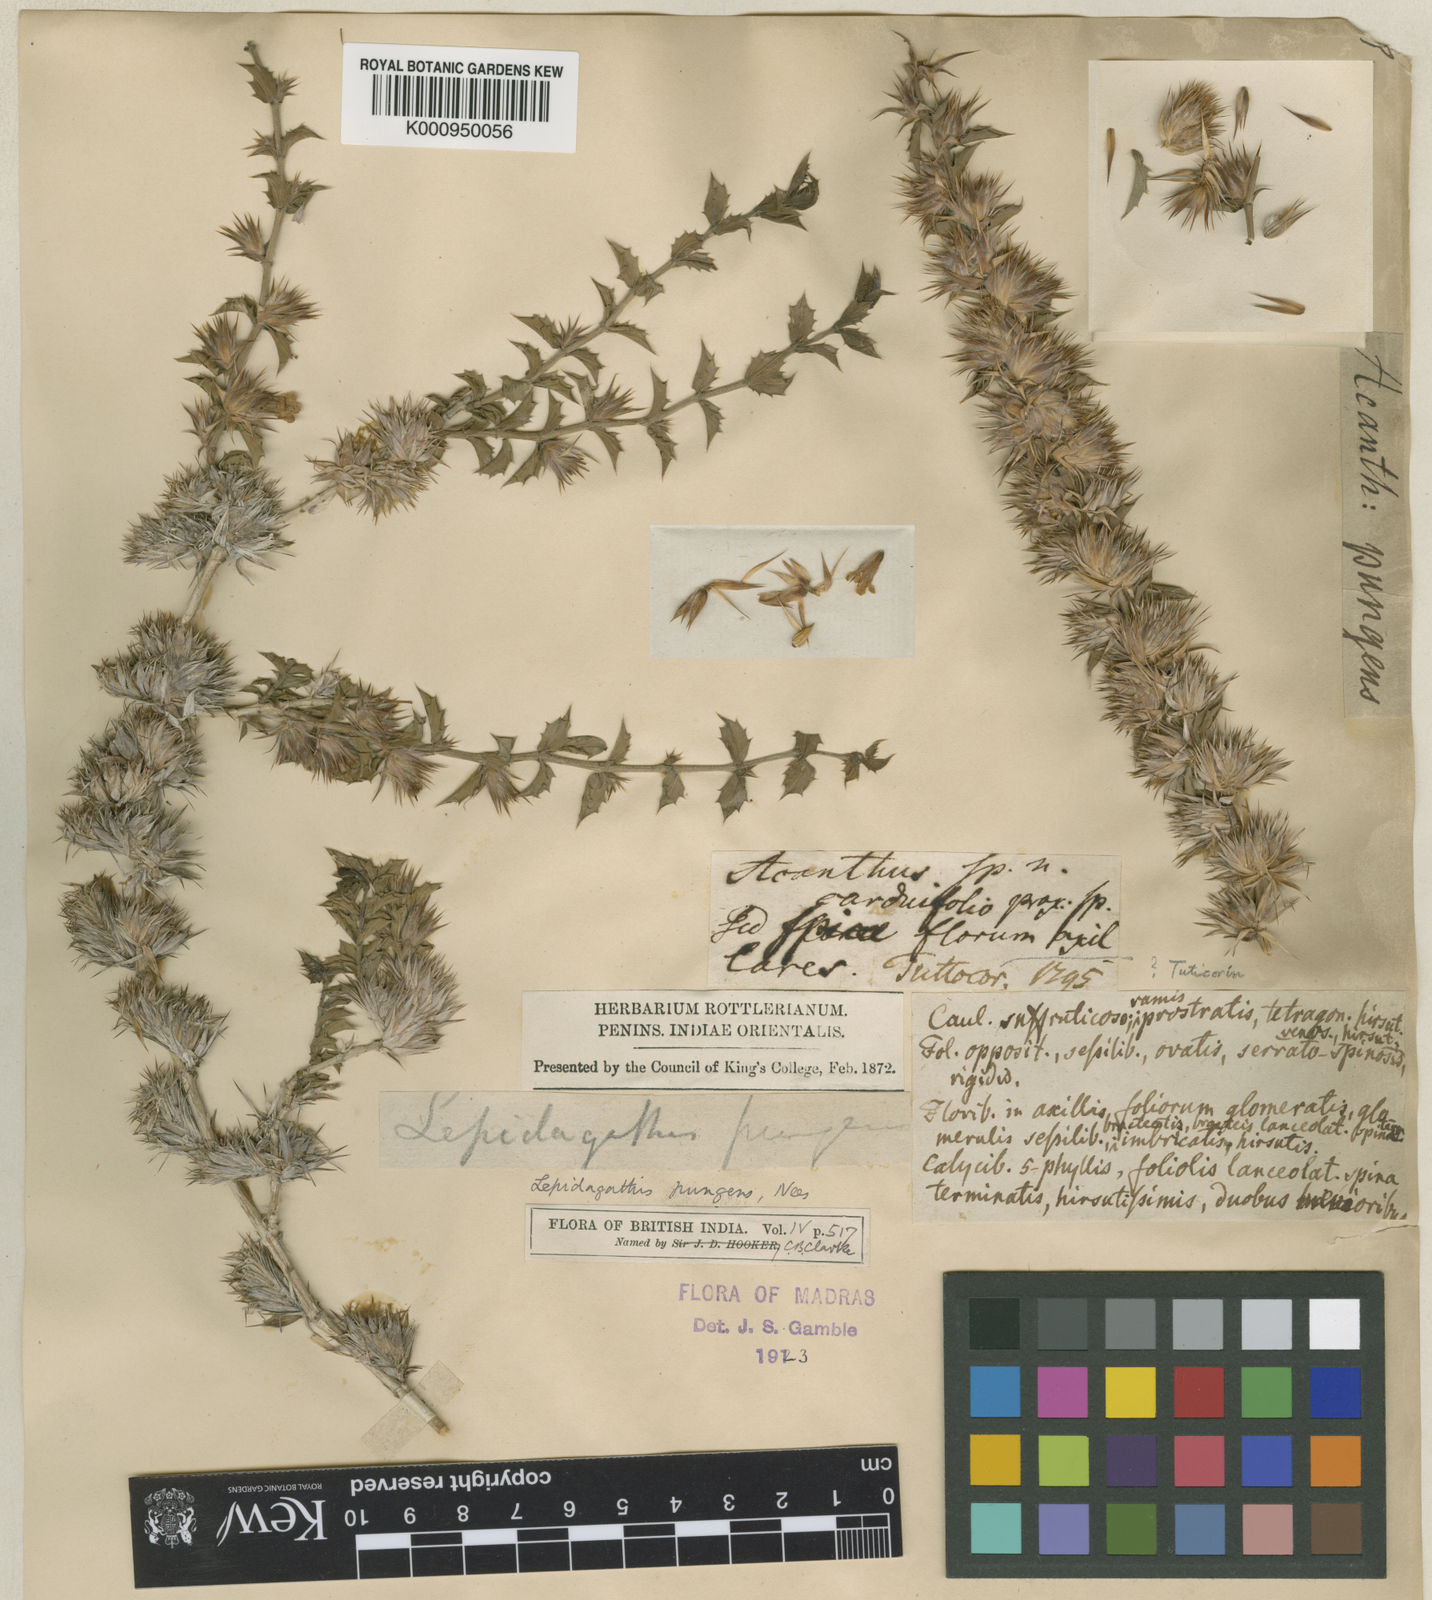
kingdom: Plantae
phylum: Tracheophyta
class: Magnoliopsida
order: Lamiales
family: Acanthaceae
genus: Lepidagathis
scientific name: Lepidagathis pungens
